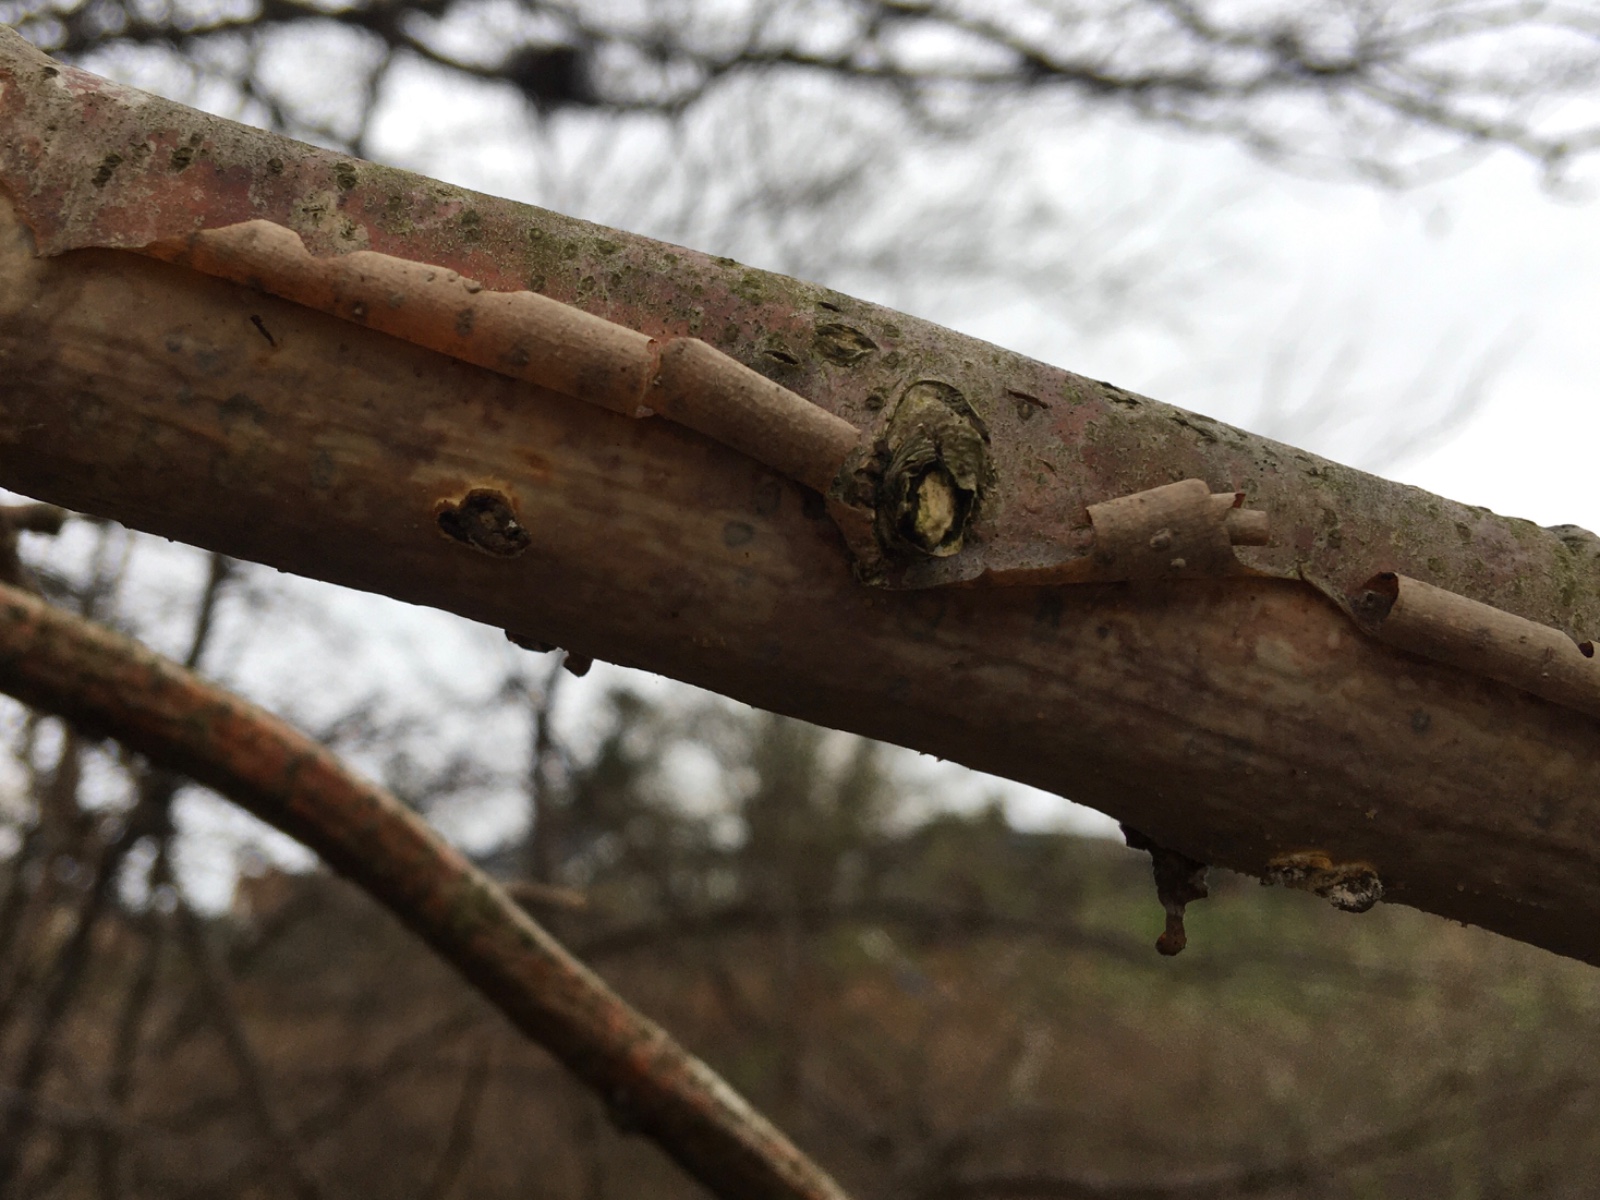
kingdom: Fungi
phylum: Basidiomycota
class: Agaricomycetes
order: Corticiales
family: Vuilleminiaceae
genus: Vuilleminia
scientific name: Vuilleminia comedens
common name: almindelig barksprænger
